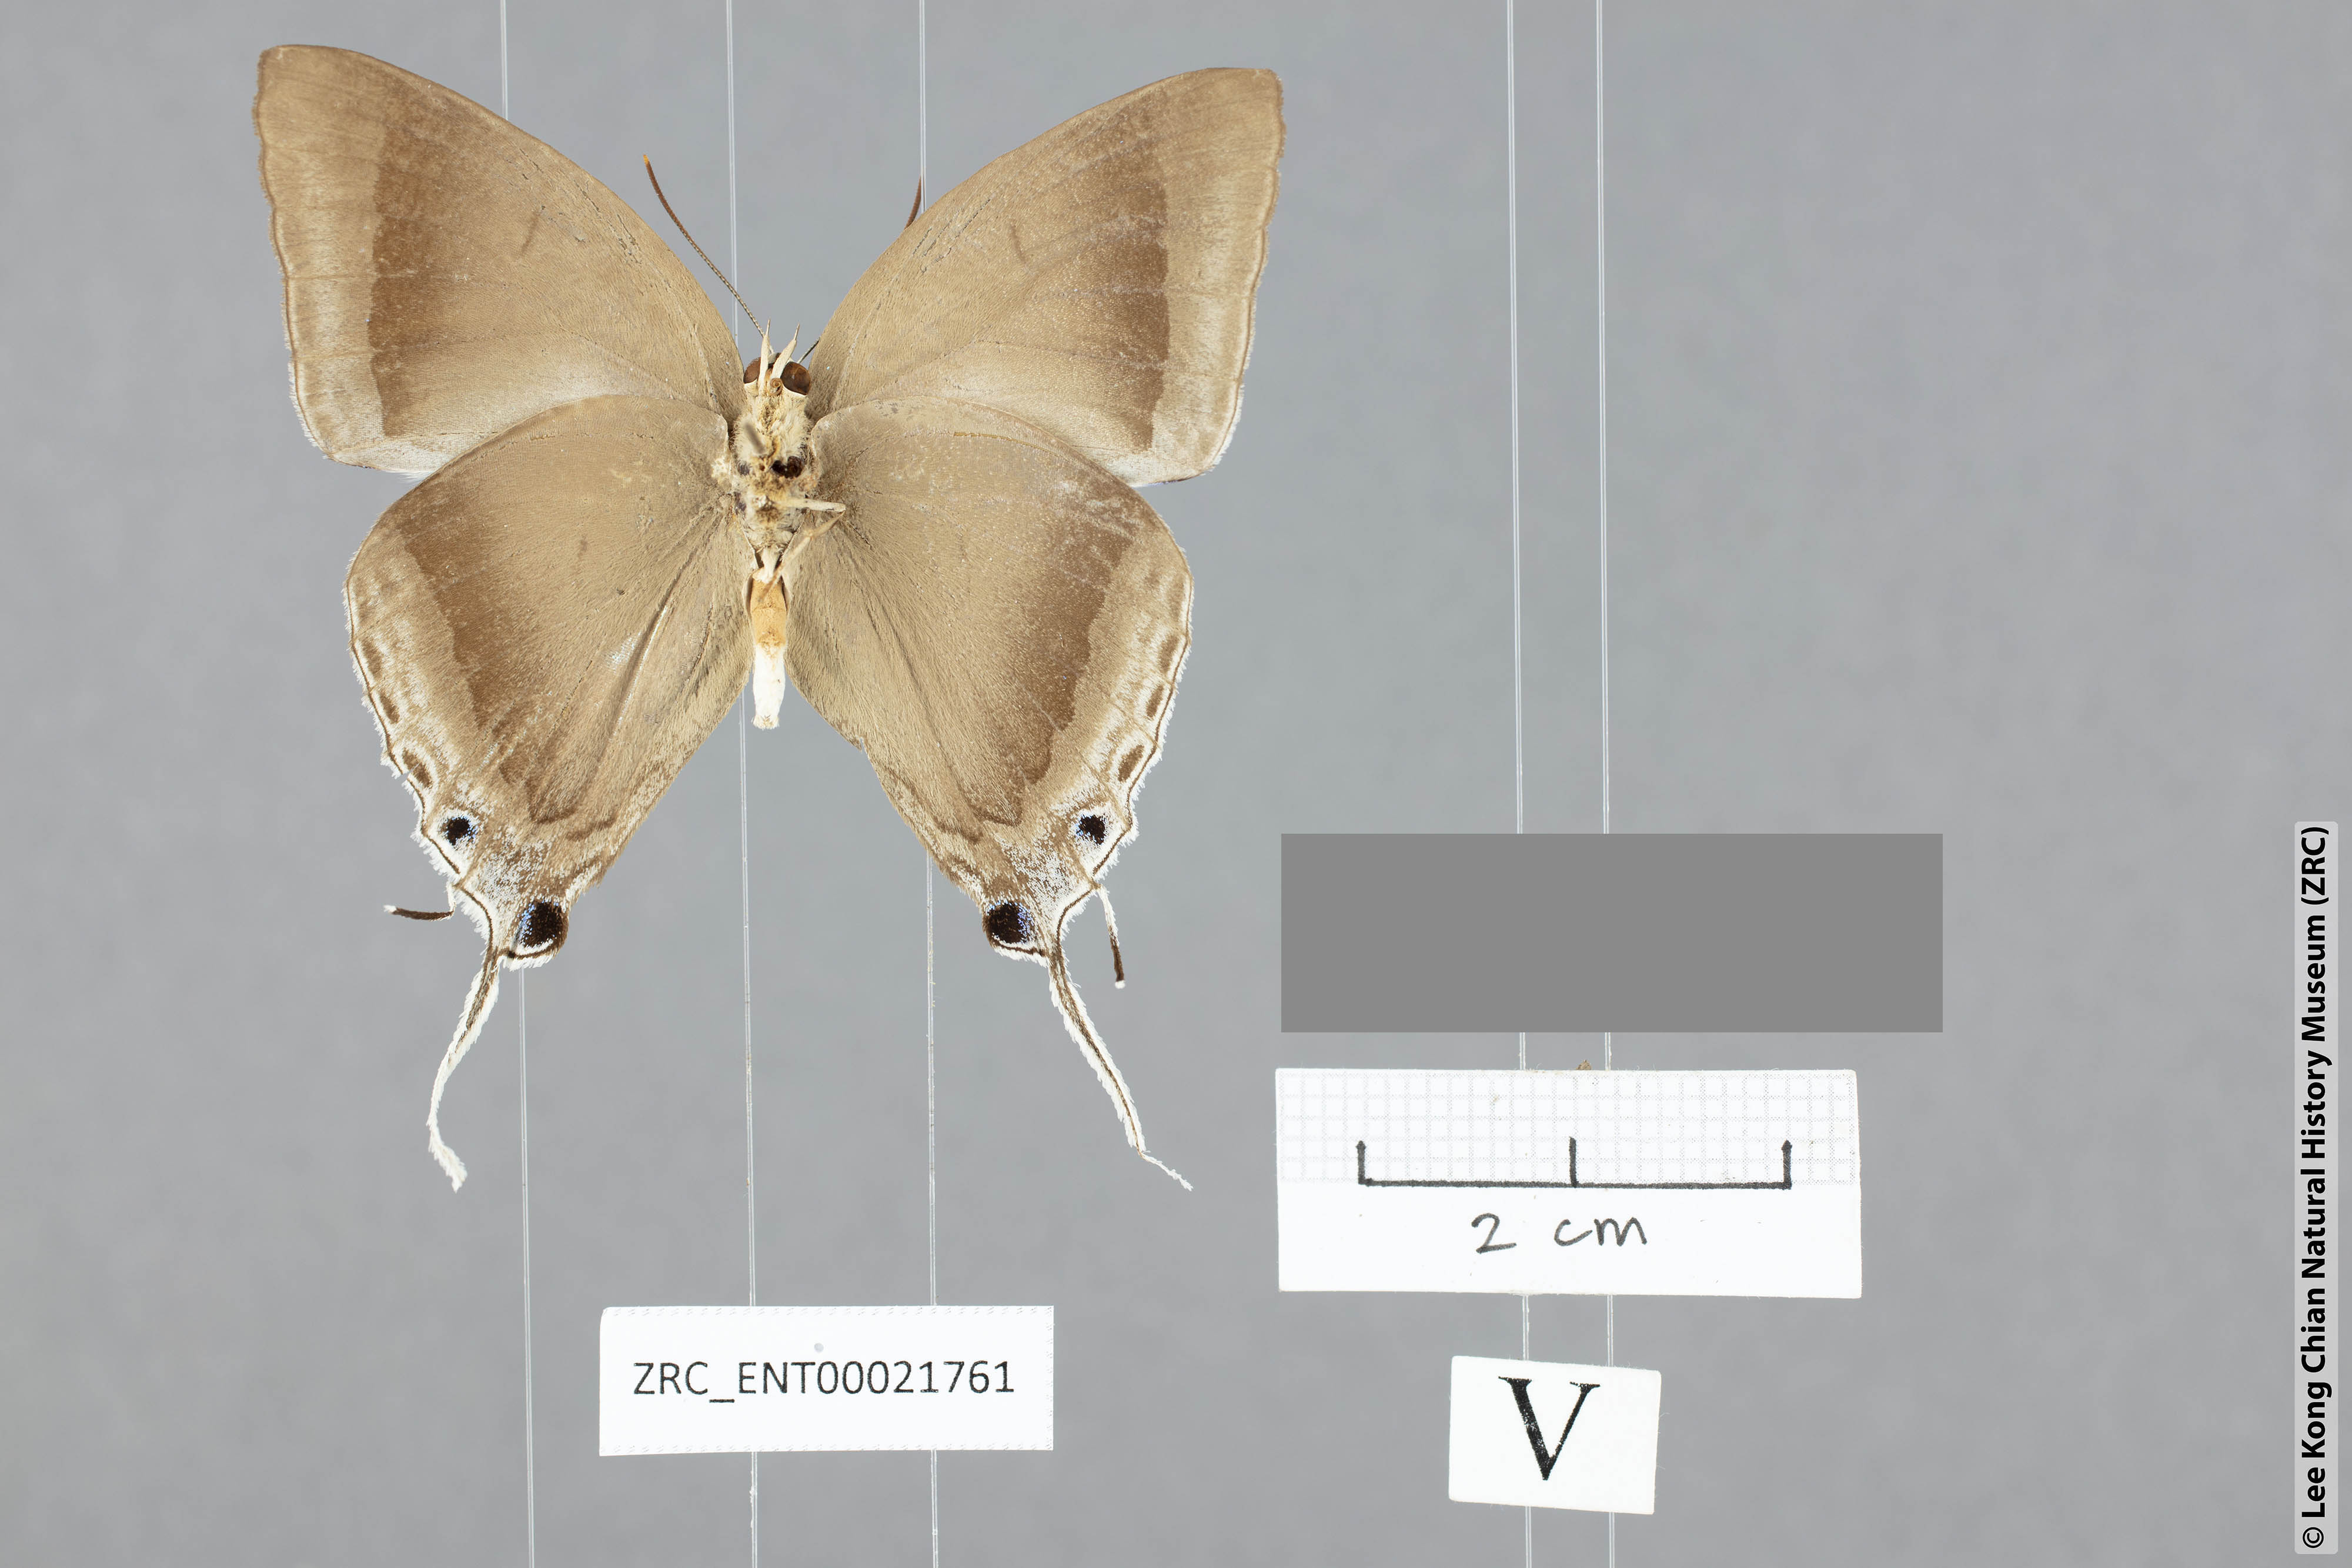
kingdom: Animalia
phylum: Arthropoda
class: Insecta
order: Lepidoptera
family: Lycaenidae
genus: Purlisa
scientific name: Purlisa giganteus
